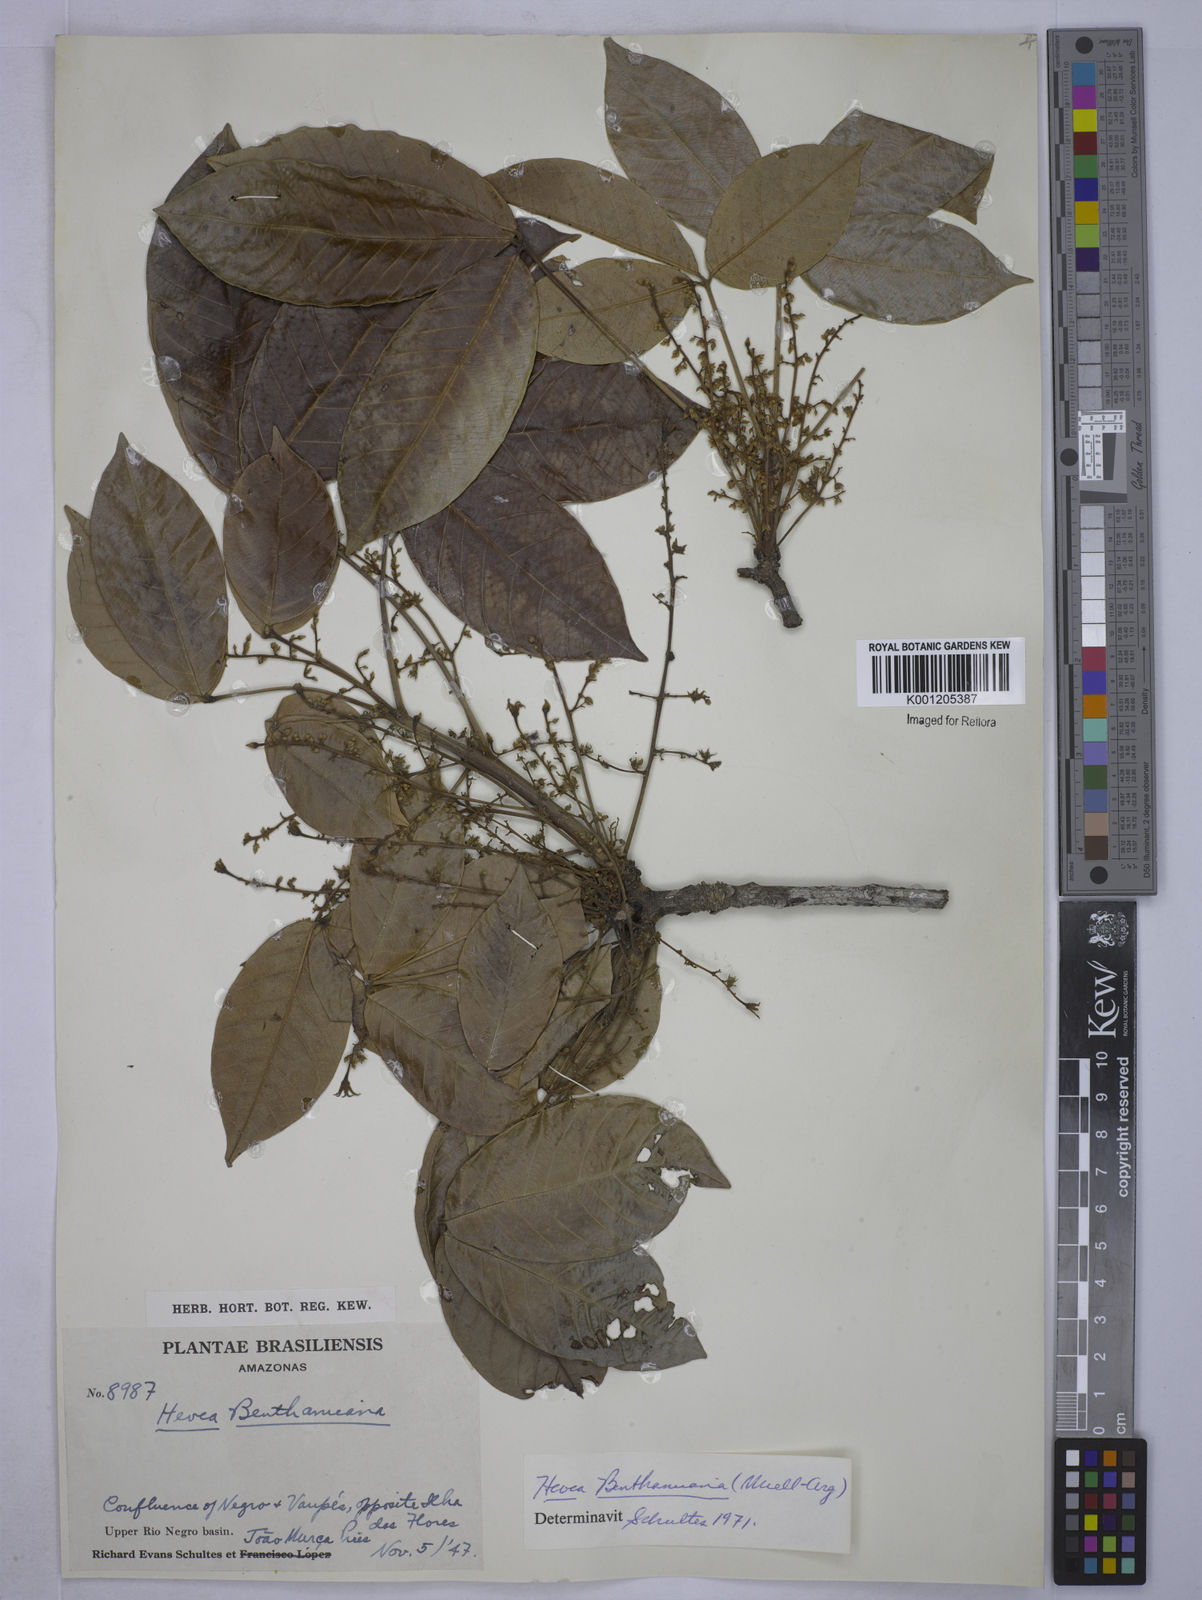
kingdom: Plantae
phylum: Tracheophyta
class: Magnoliopsida
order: Malpighiales
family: Euphorbiaceae
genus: Hevea
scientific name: Hevea
